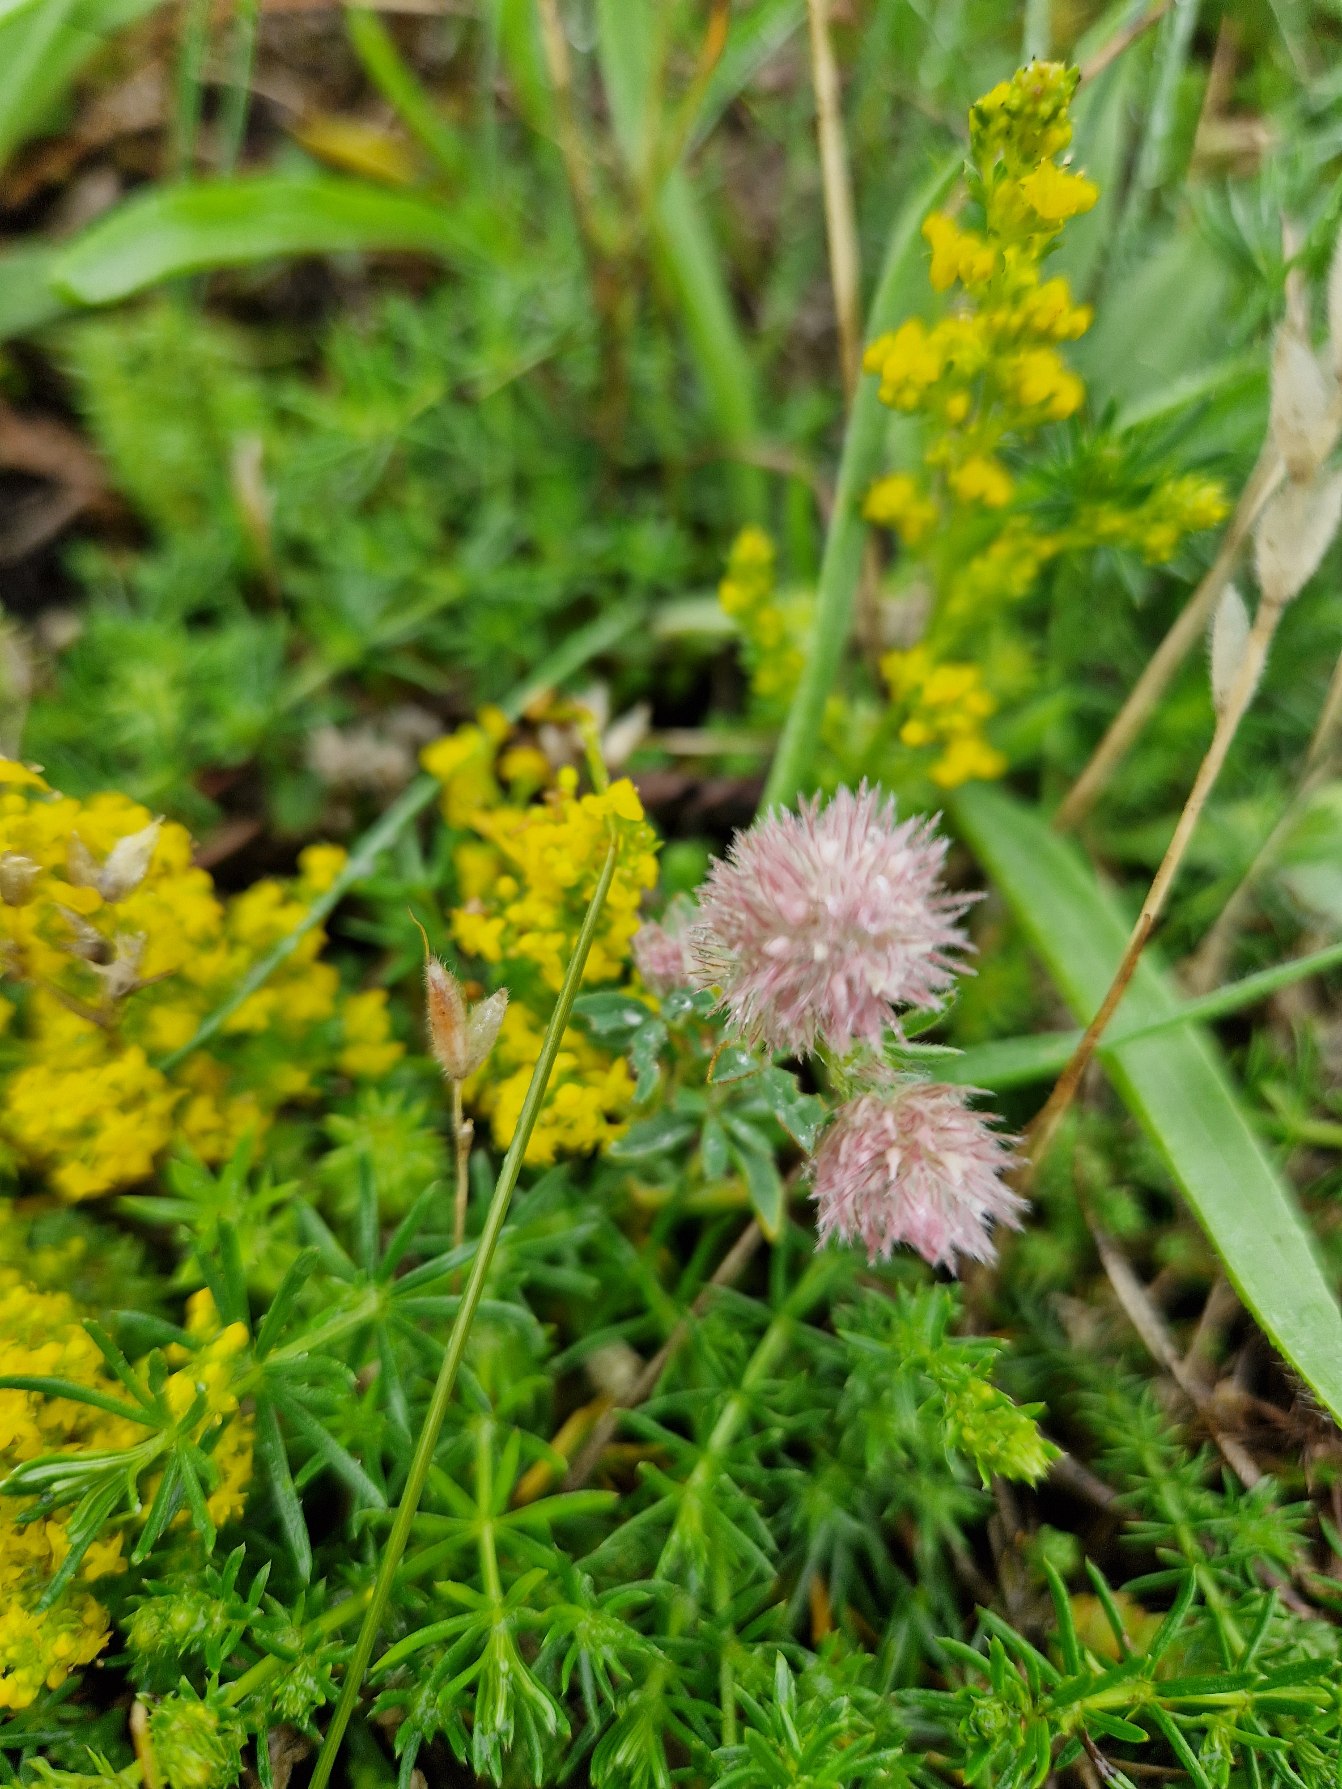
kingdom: Plantae
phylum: Tracheophyta
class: Magnoliopsida
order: Fabales
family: Fabaceae
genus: Trifolium
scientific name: Trifolium arvense
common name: Hare-kløver
